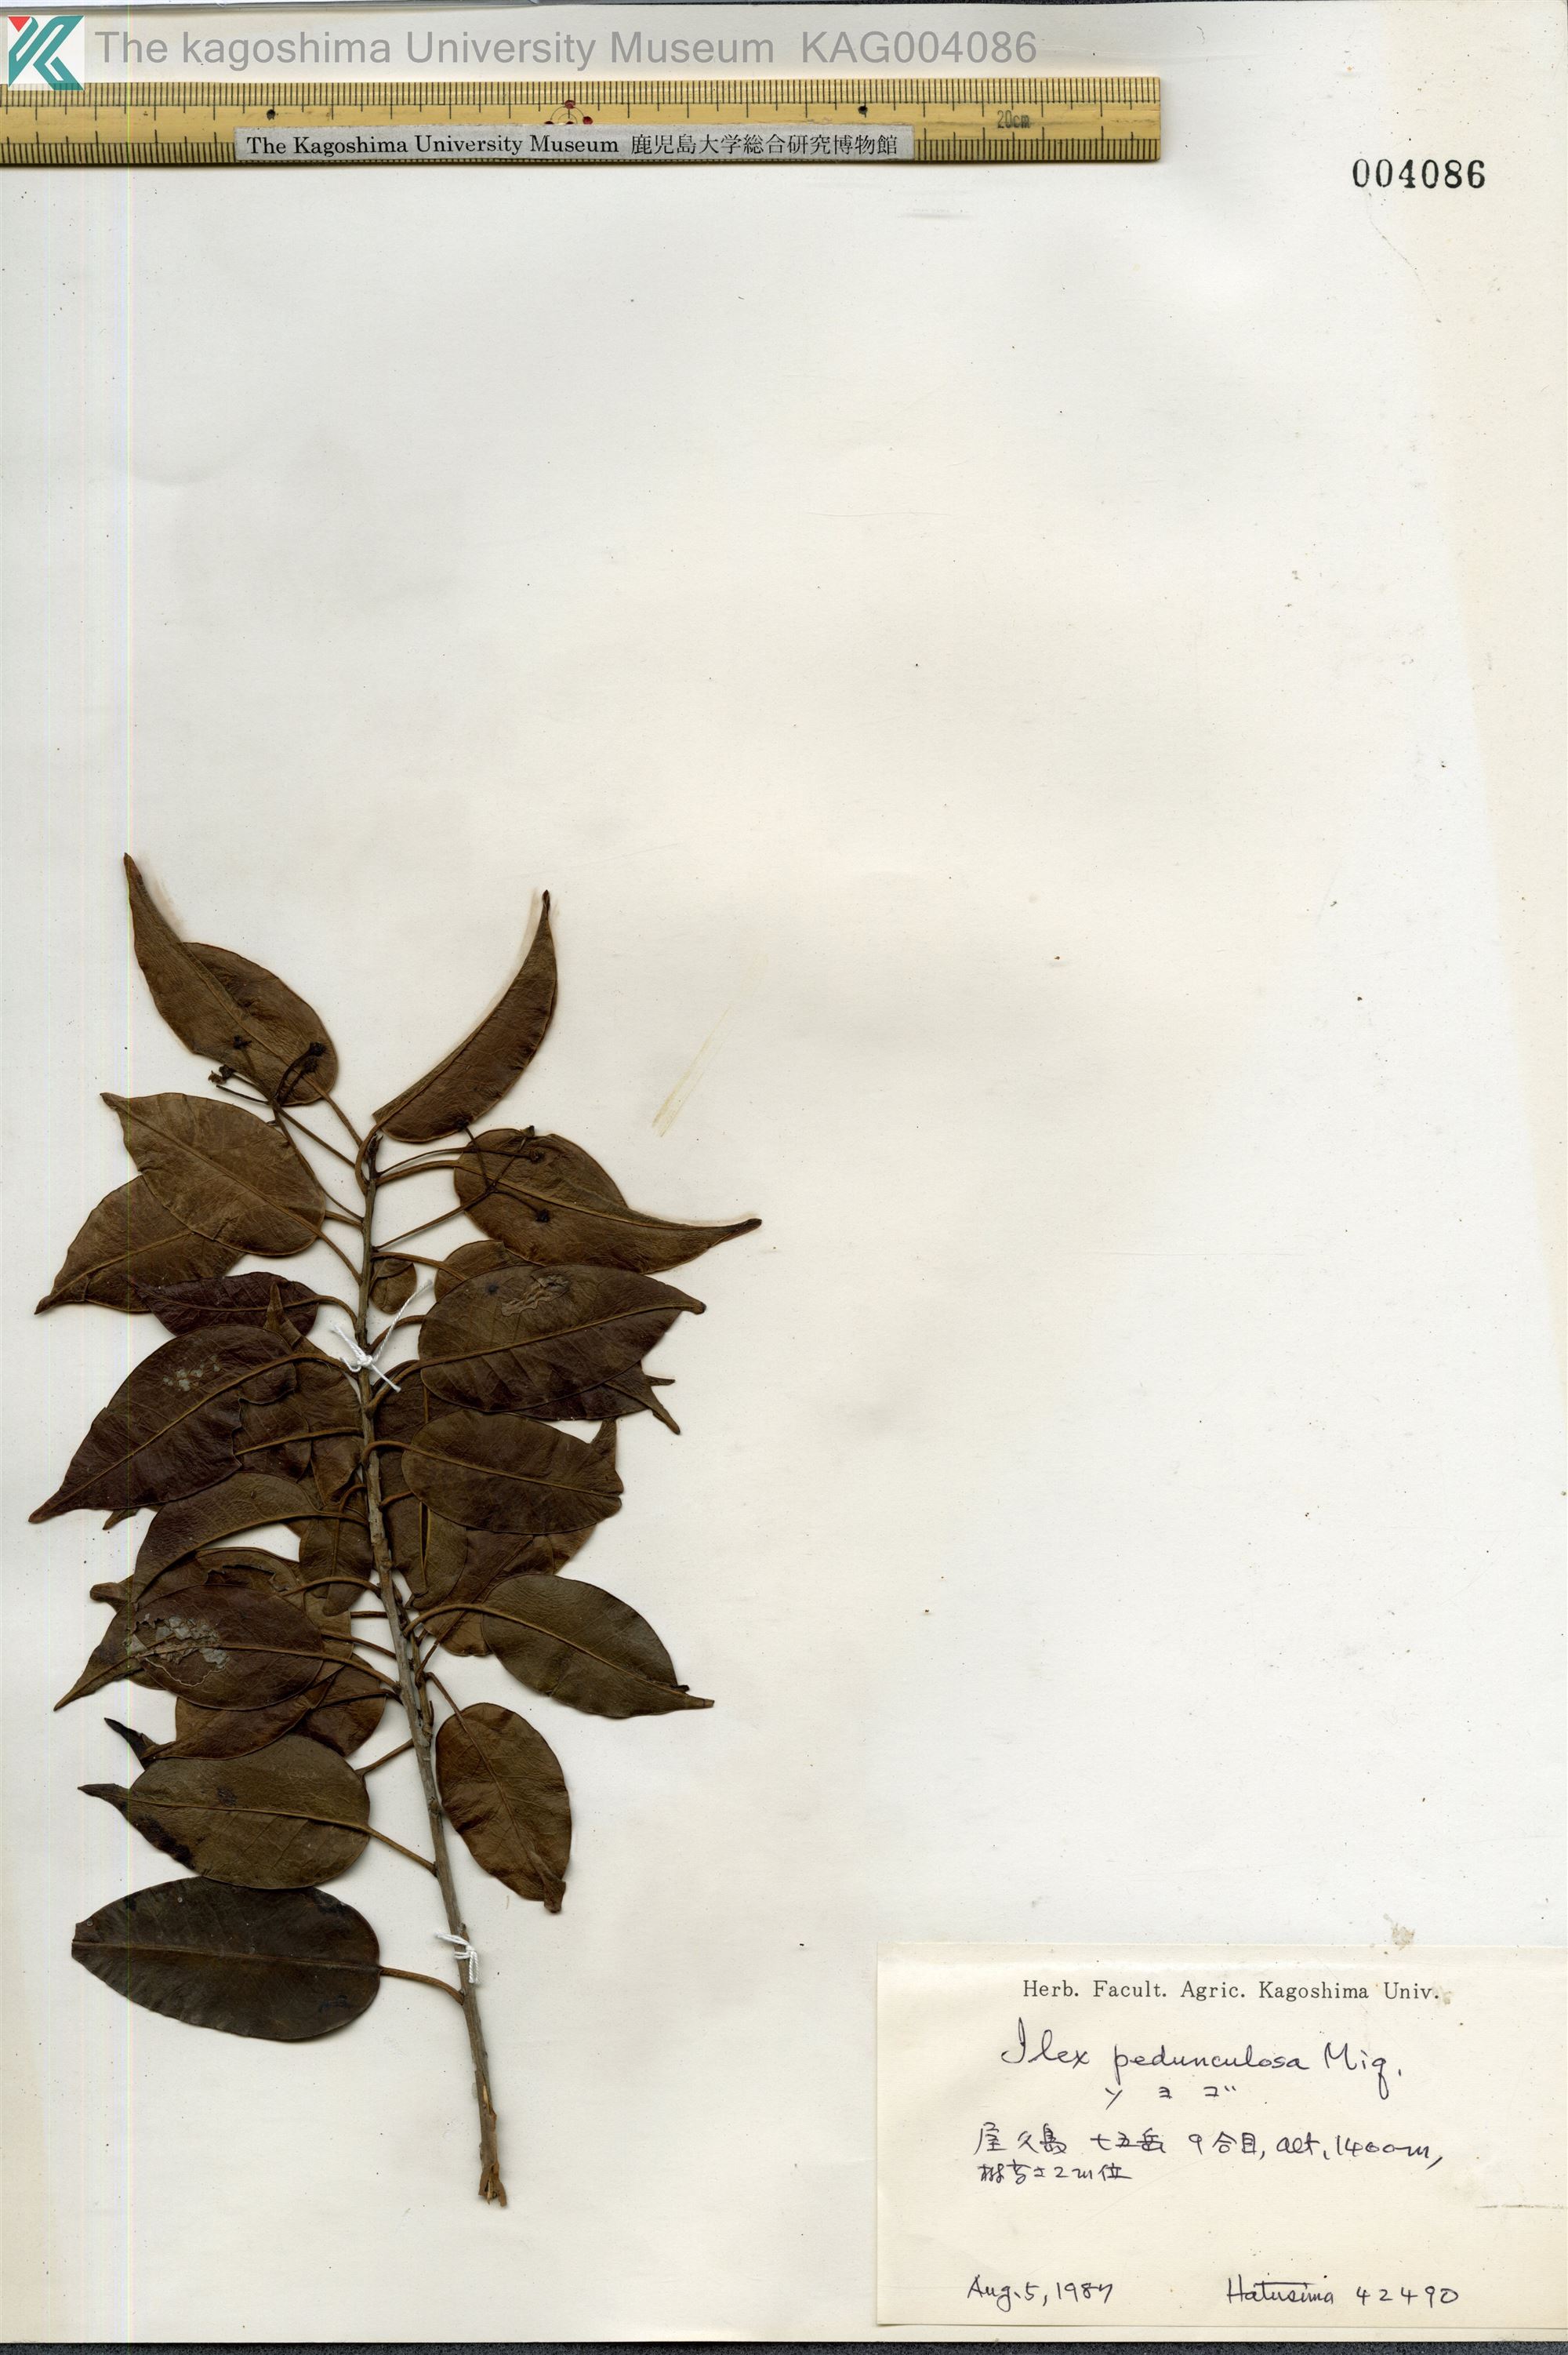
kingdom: Plantae
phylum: Tracheophyta
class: Magnoliopsida
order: Aquifoliales
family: Aquifoliaceae
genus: Ilex
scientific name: Ilex pedunculosa
